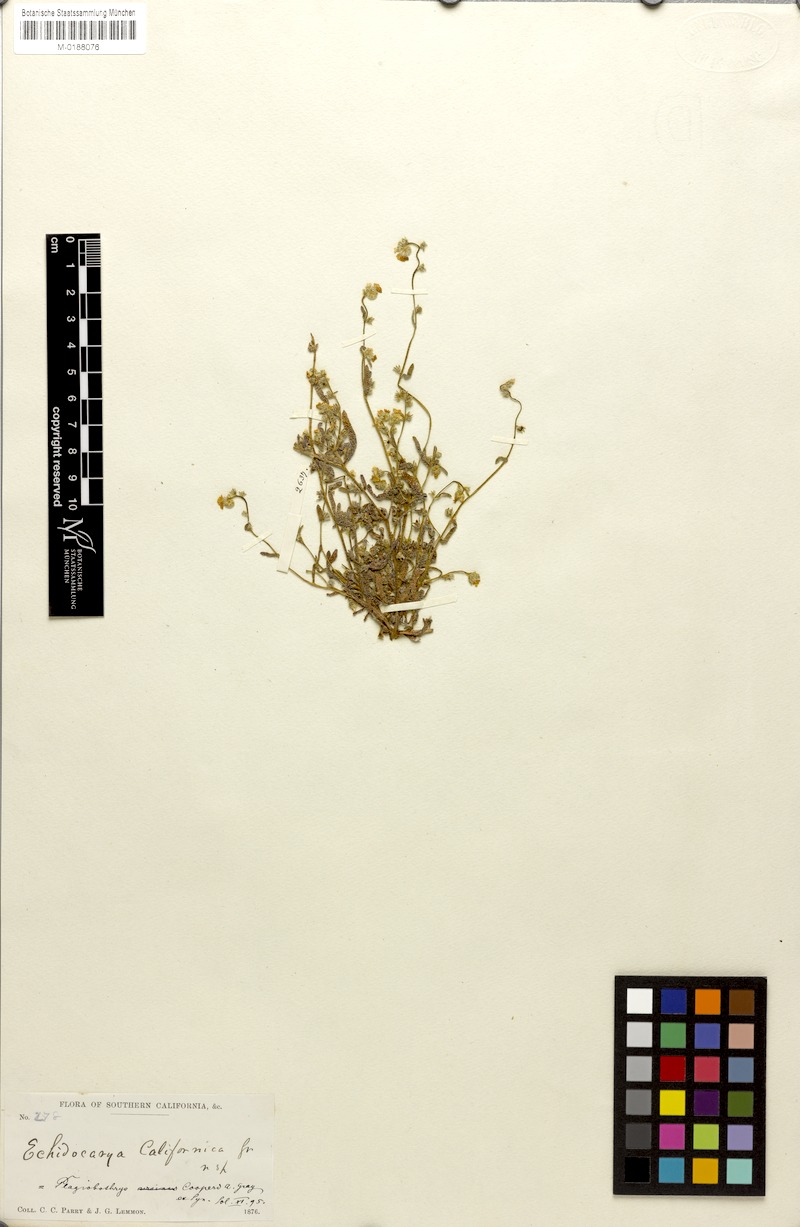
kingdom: Plantae
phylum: Tracheophyta
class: Magnoliopsida
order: Boraginales
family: Boraginaceae
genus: Plagiobothrys
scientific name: Plagiobothrys collinus
